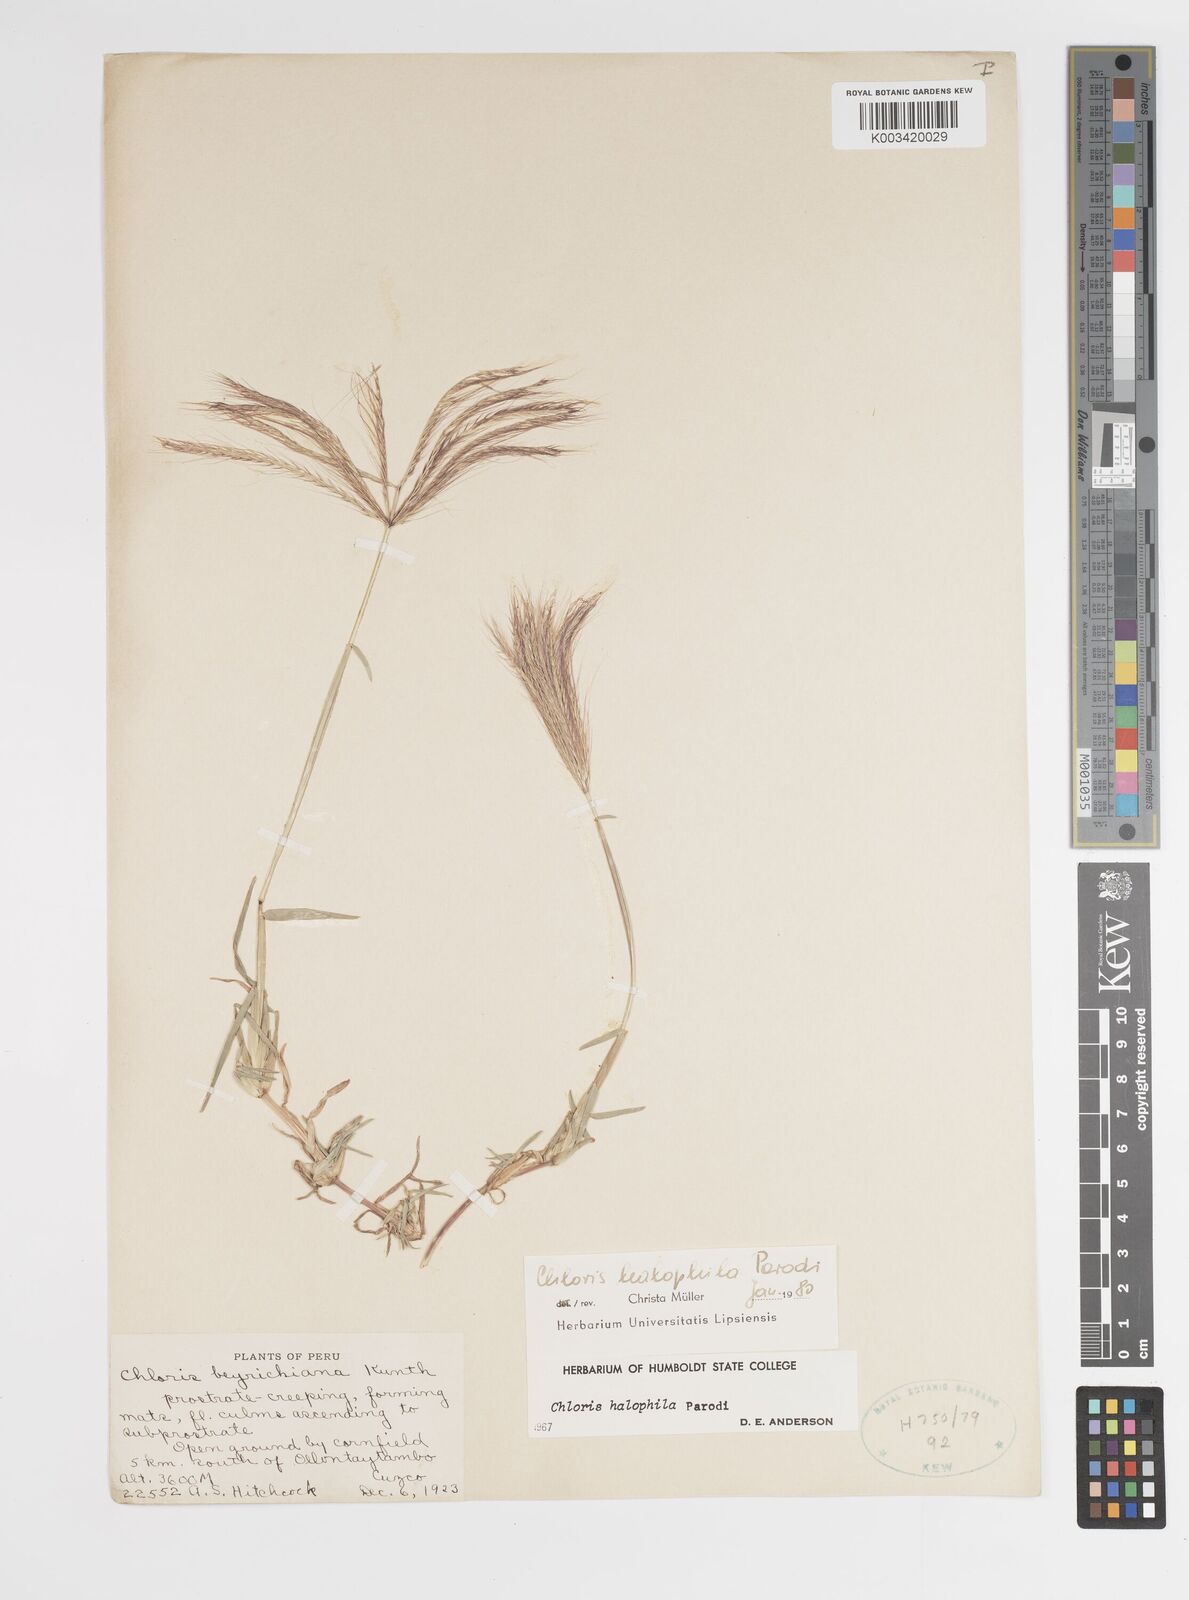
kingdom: Plantae
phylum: Tracheophyta
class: Liliopsida
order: Poales
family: Poaceae
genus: Chloris
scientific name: Chloris halophila
